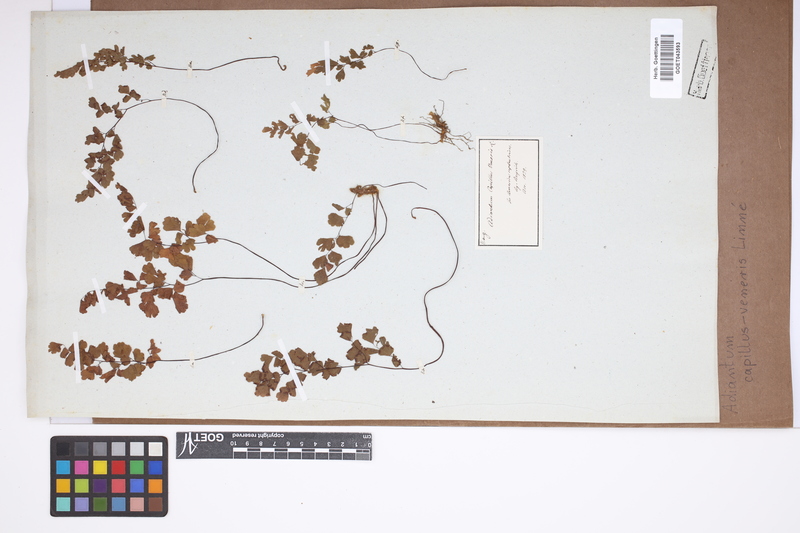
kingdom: Plantae
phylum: Tracheophyta
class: Polypodiopsida
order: Polypodiales
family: Pteridaceae
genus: Adiantum
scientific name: Adiantum capillus-veneris
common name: Maidenhair fern
